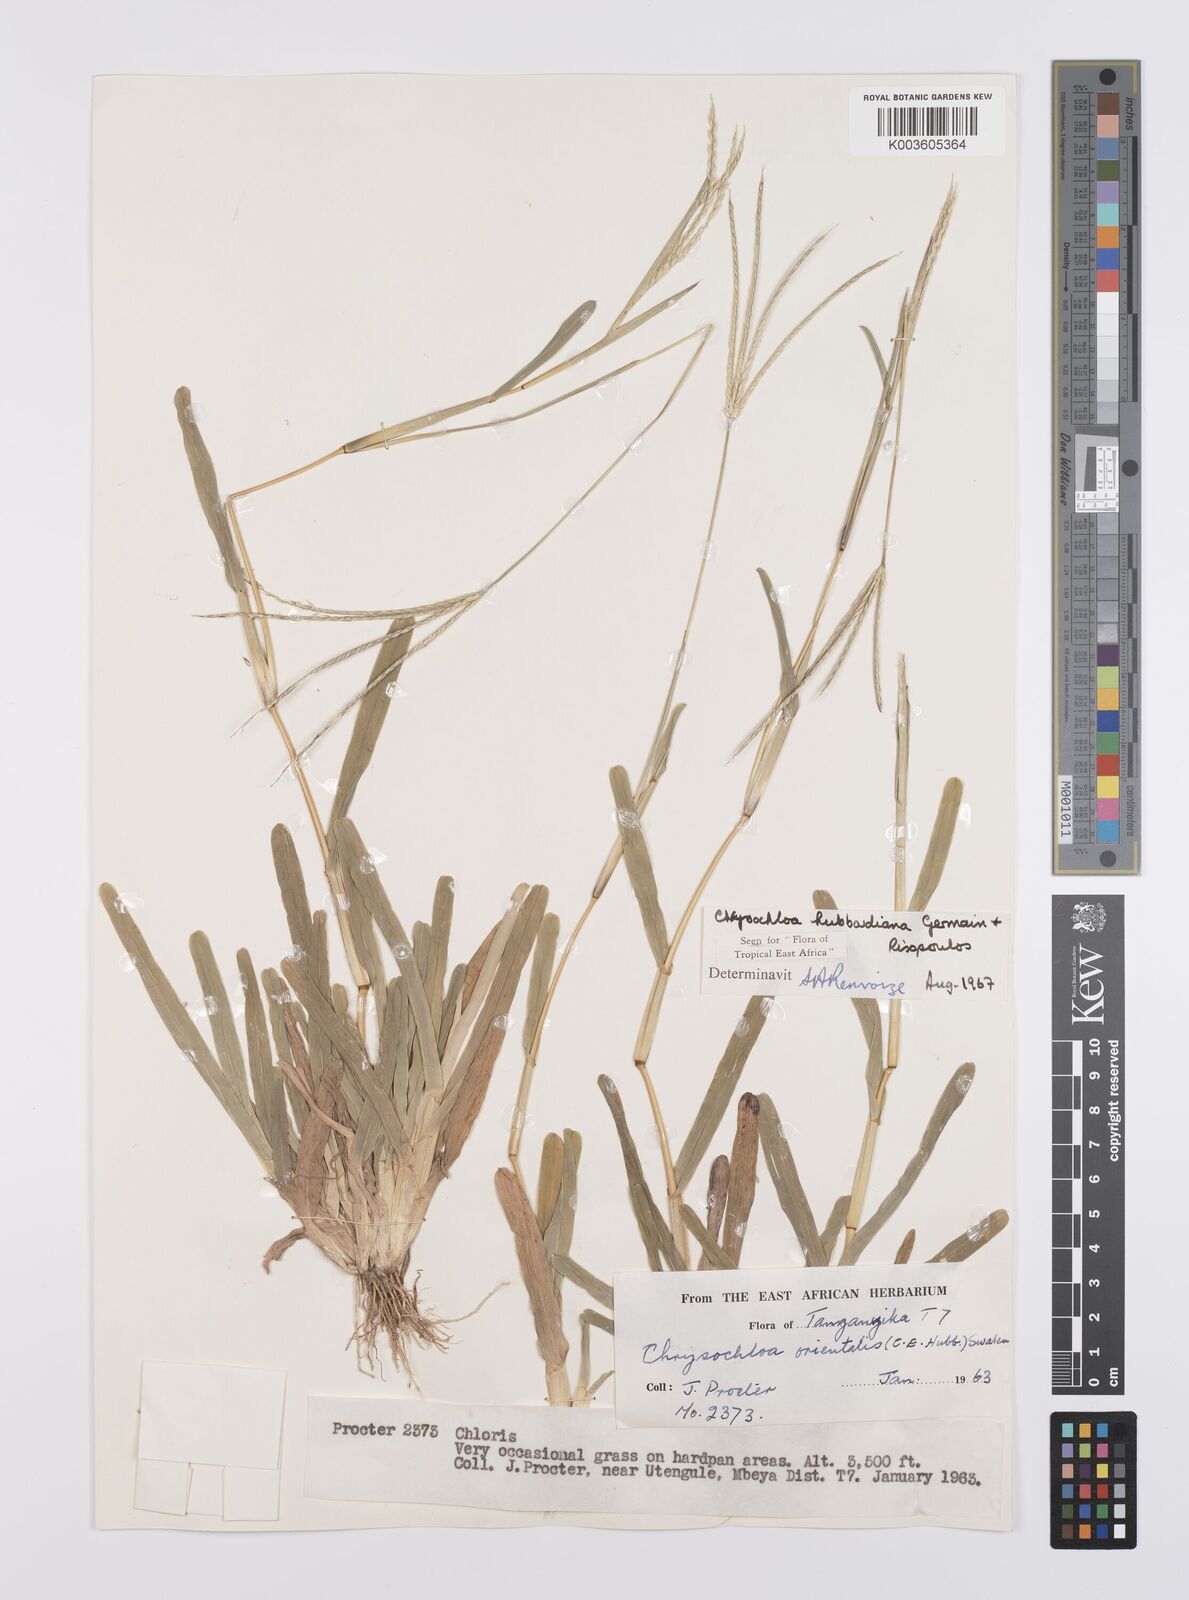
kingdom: Plantae
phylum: Tracheophyta
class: Liliopsida
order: Poales
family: Poaceae
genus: Chrysochloa
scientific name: Chrysochloa hubbardiana
